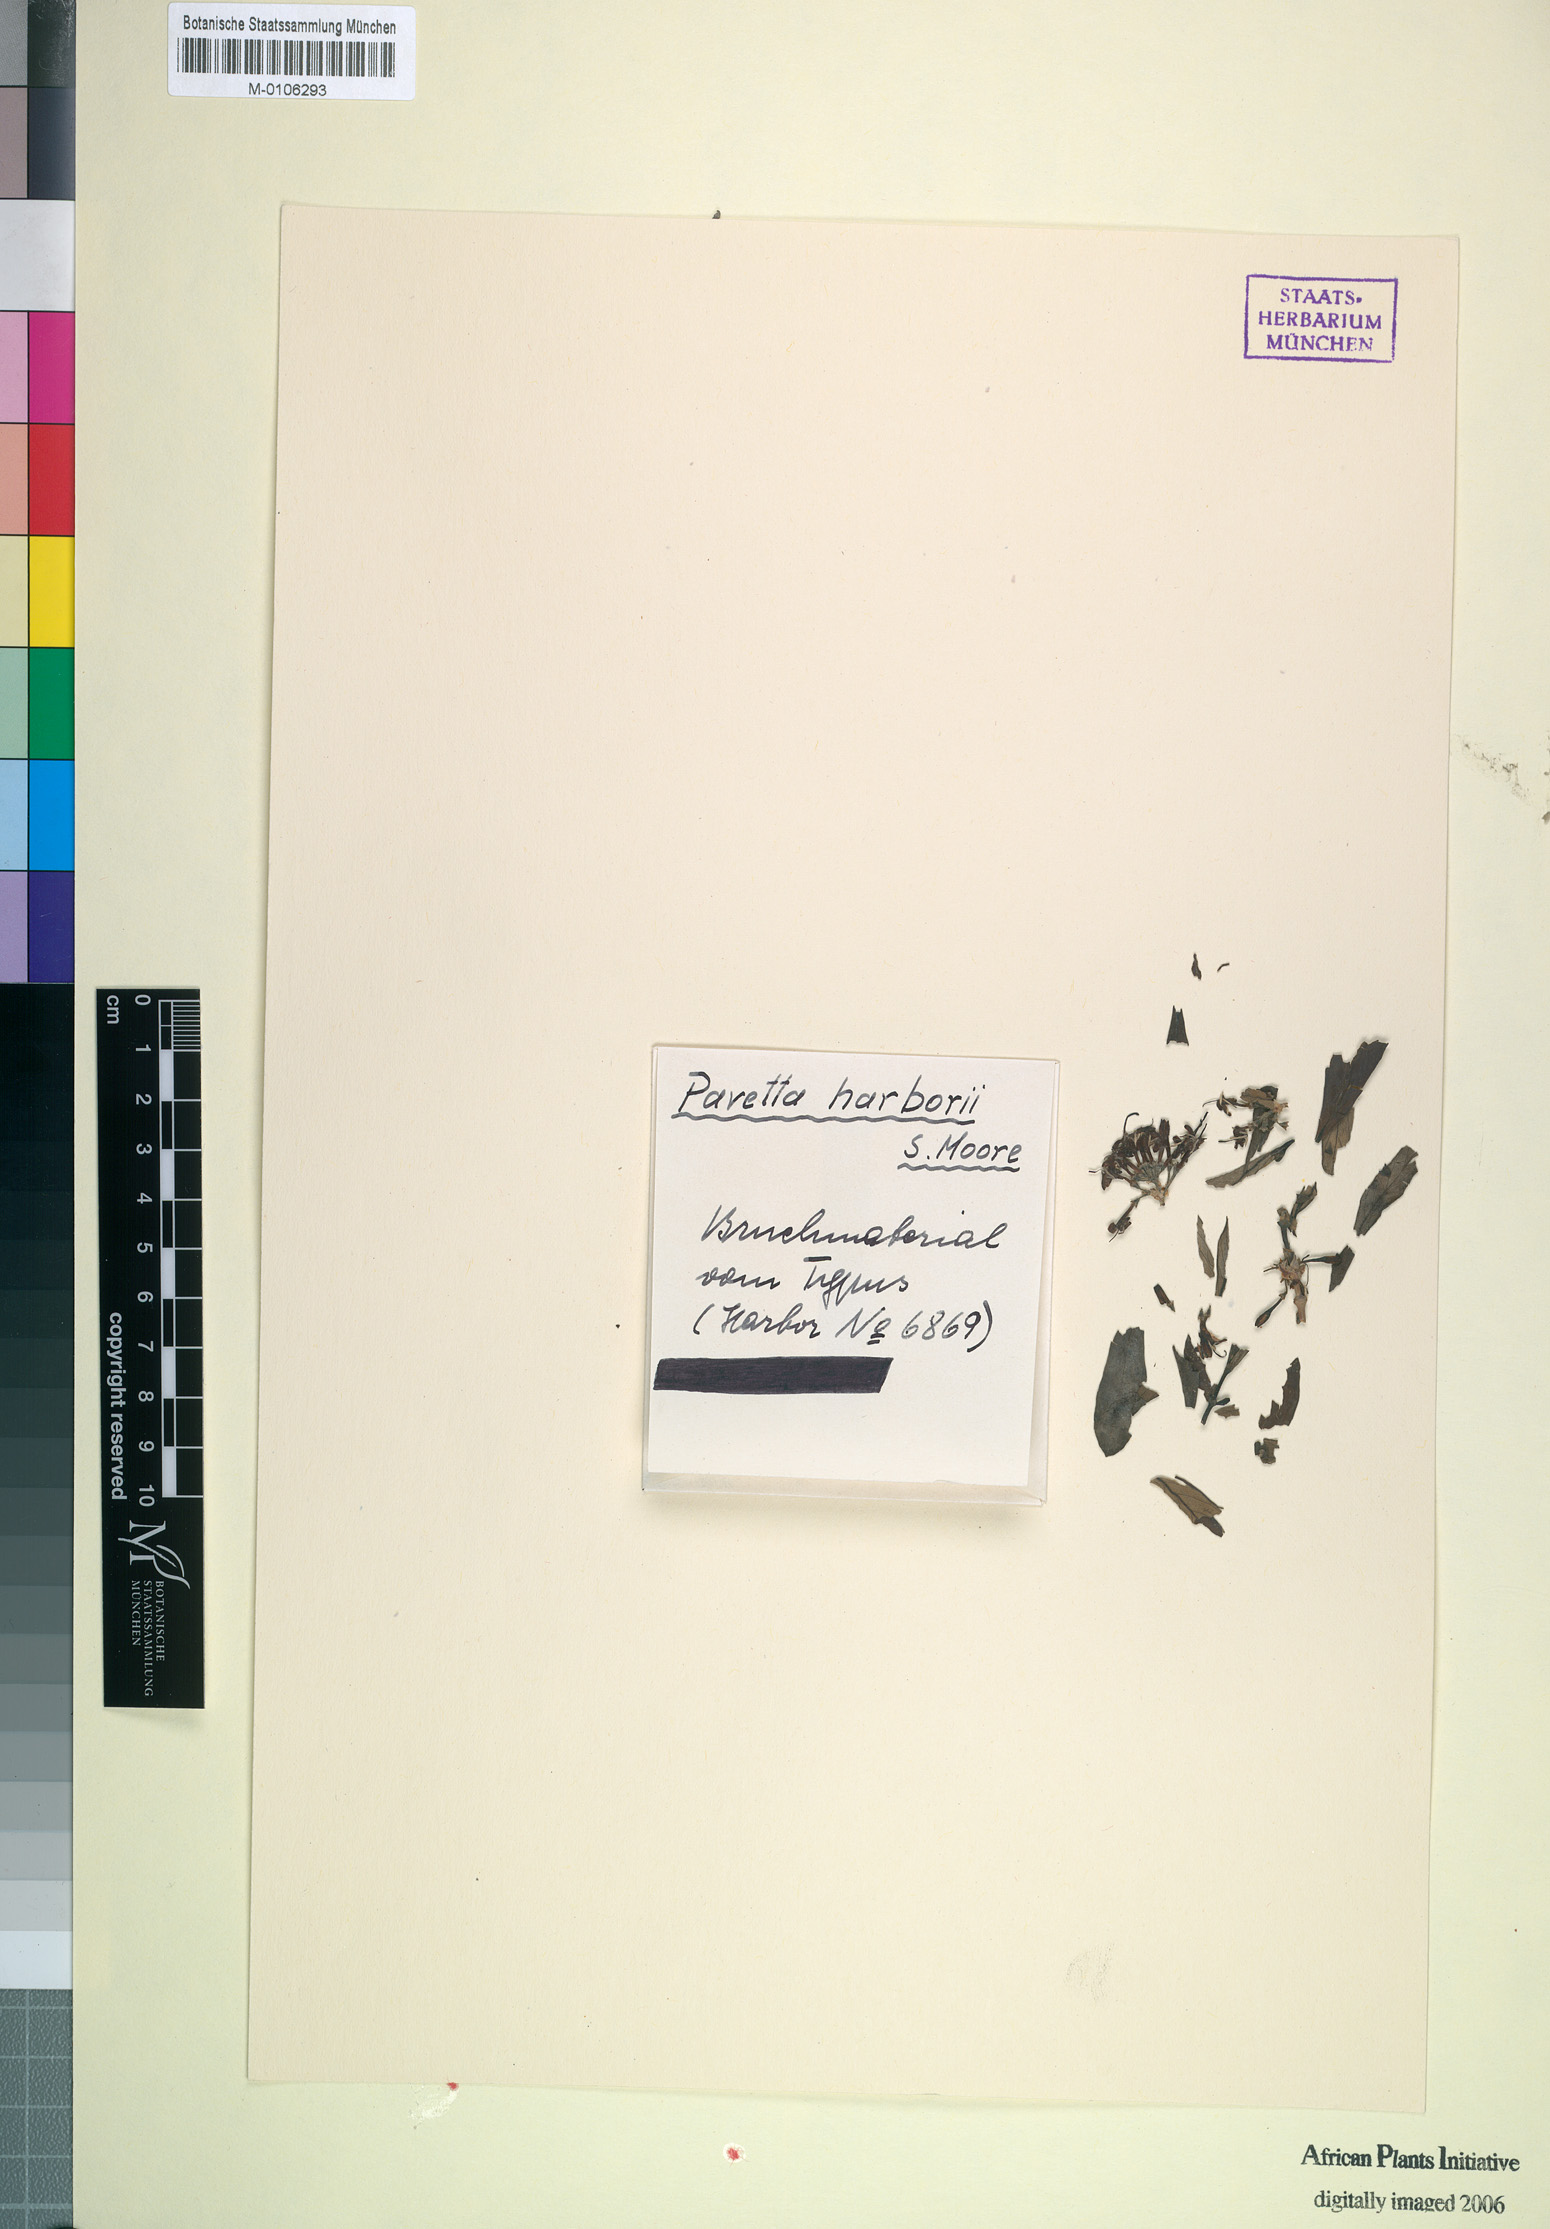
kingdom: Plantae
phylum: Tracheophyta
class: Magnoliopsida
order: Gentianales
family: Rubiaceae
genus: Pavetta
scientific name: Pavetta harborii
